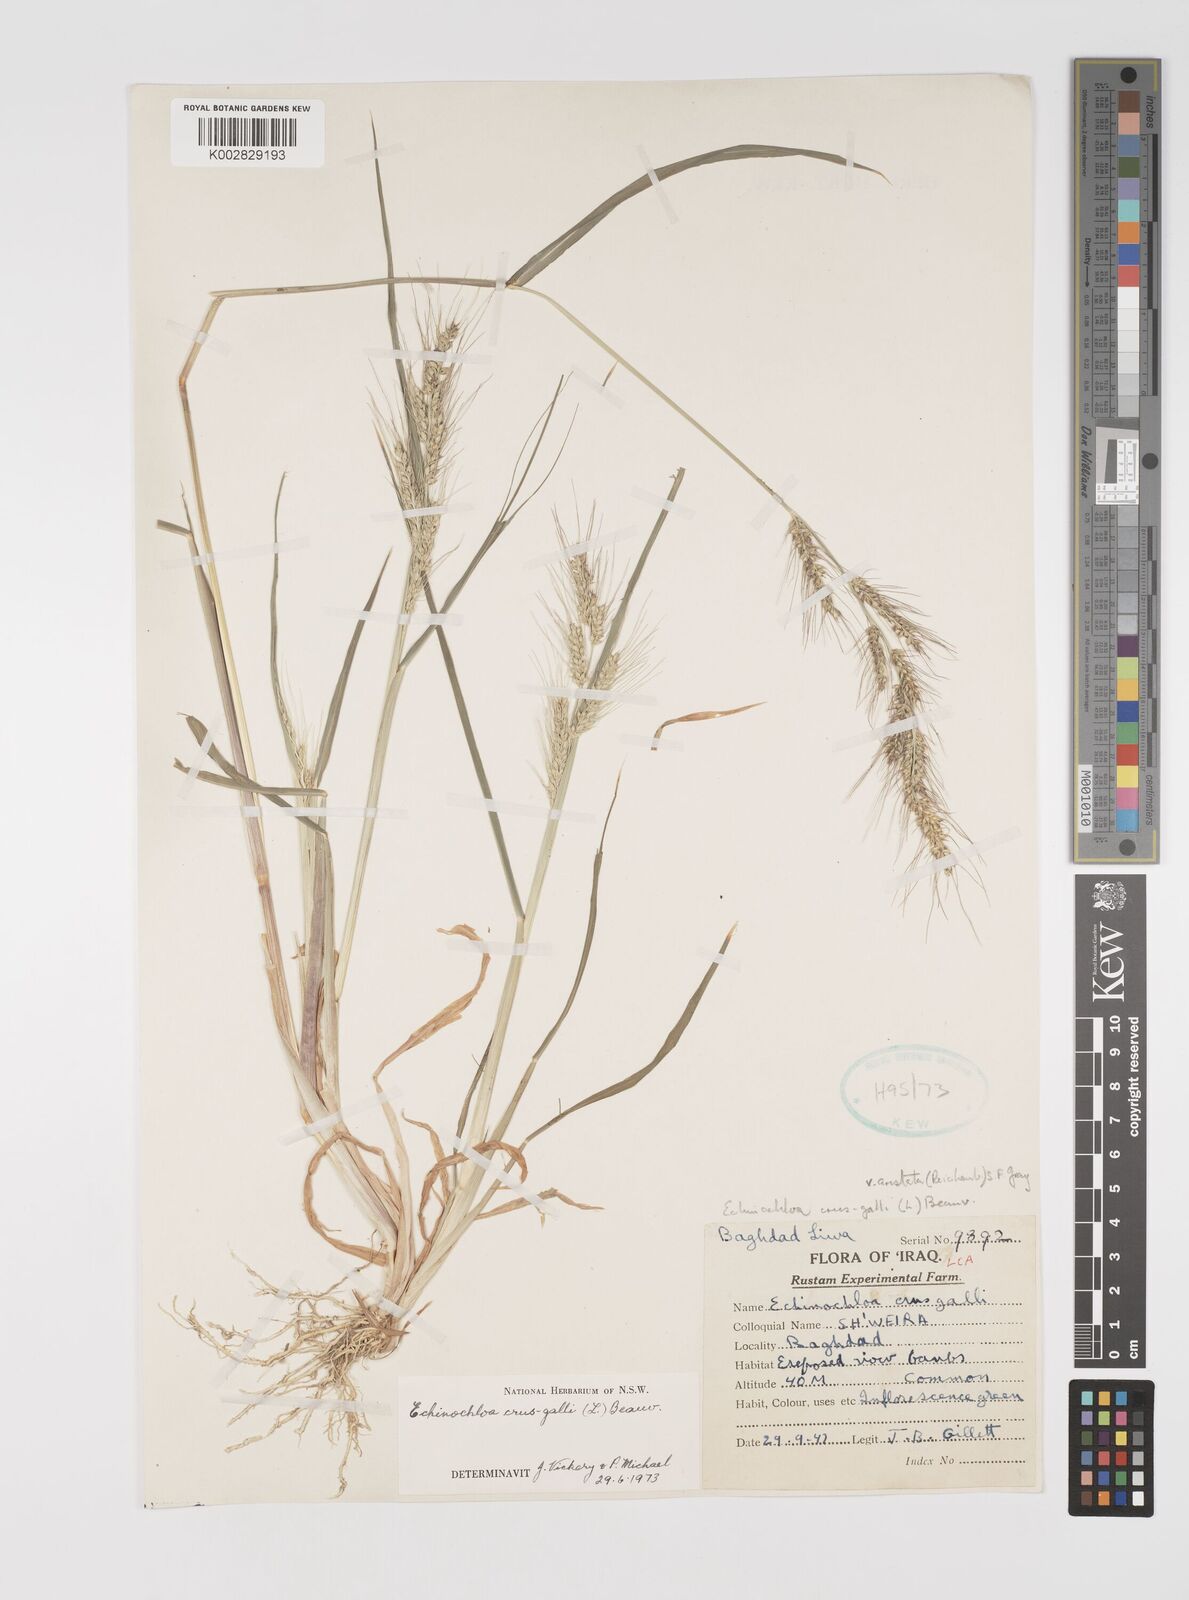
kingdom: Plantae
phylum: Tracheophyta
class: Liliopsida
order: Poales
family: Poaceae
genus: Echinochloa
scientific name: Echinochloa crus-galli
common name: Cockspur
